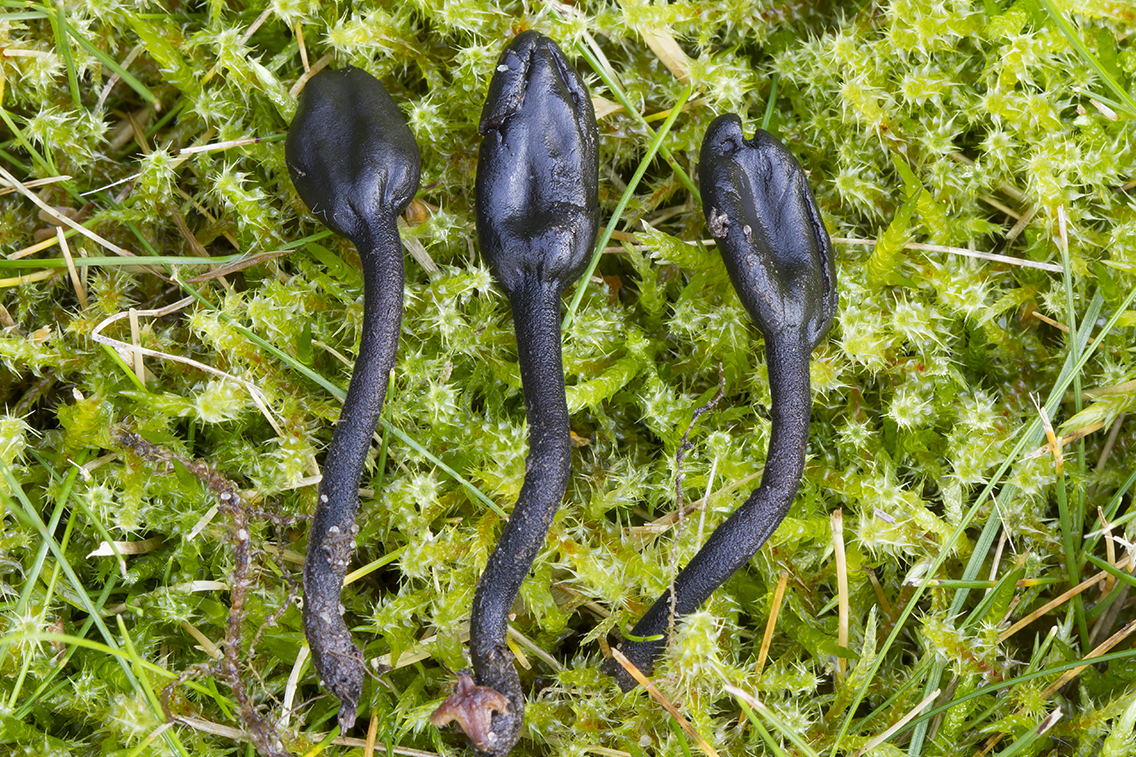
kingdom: Fungi
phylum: Ascomycota
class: Geoglossomycetes
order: Geoglossales
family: Geoglossaceae
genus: Trichoglossum
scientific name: Trichoglossum hirsutum
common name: håret jordtunge
